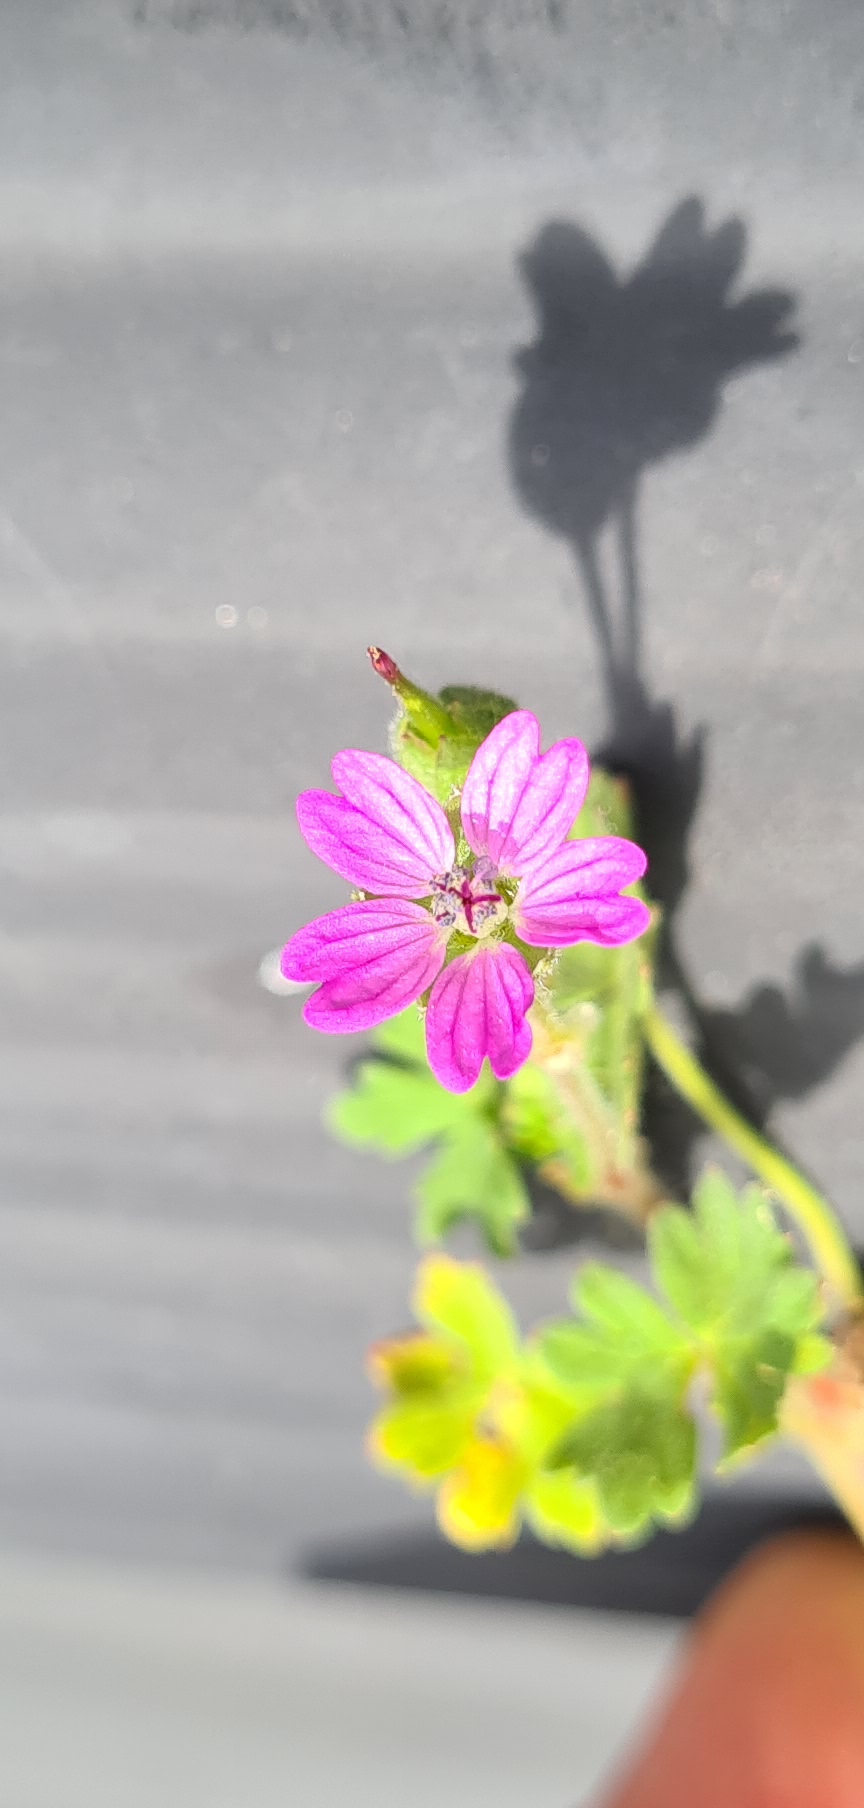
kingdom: Plantae
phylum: Tracheophyta
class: Magnoliopsida
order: Geraniales
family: Geraniaceae
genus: Geranium
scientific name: Geranium molle
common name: Blød storkenæb
